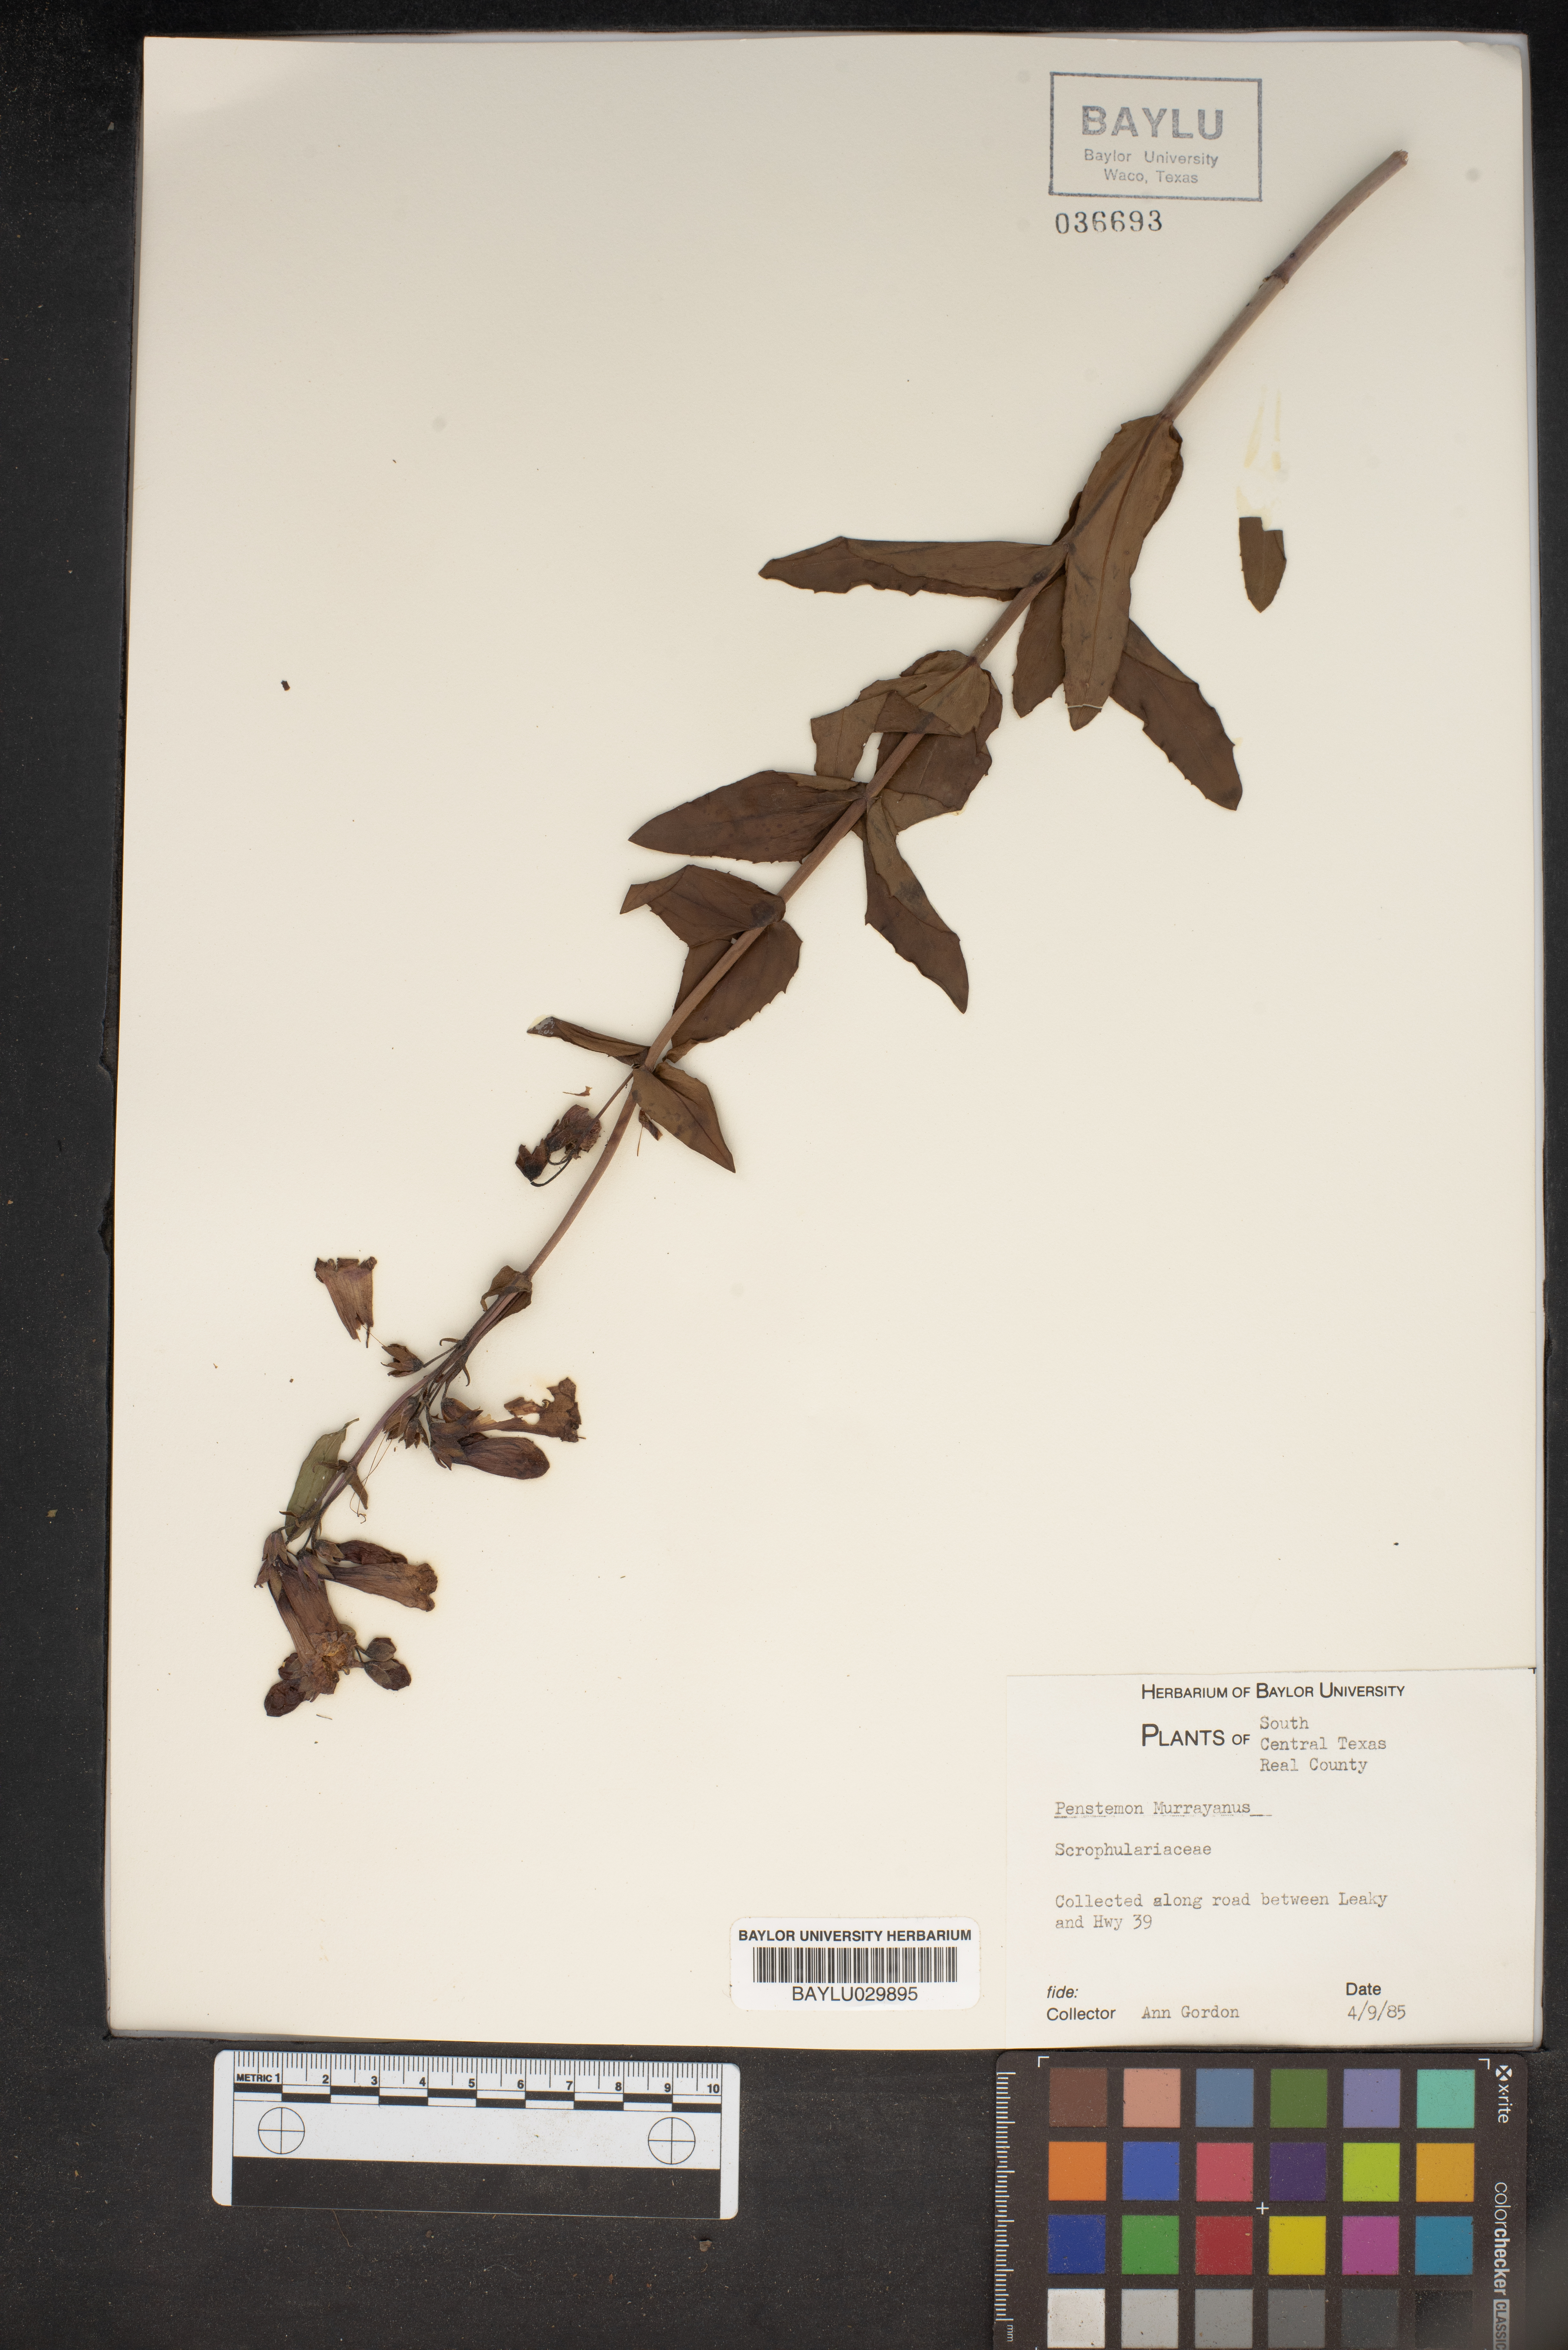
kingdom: Plantae
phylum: Tracheophyta
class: Magnoliopsida
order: Lamiales
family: Plantaginaceae
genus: Penstemon
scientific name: Penstemon murrayanus
